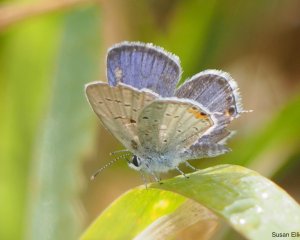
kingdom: Animalia
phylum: Arthropoda
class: Insecta
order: Lepidoptera
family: Lycaenidae
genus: Elkalyce
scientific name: Elkalyce comyntas
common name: Eastern Tailed-Blue
